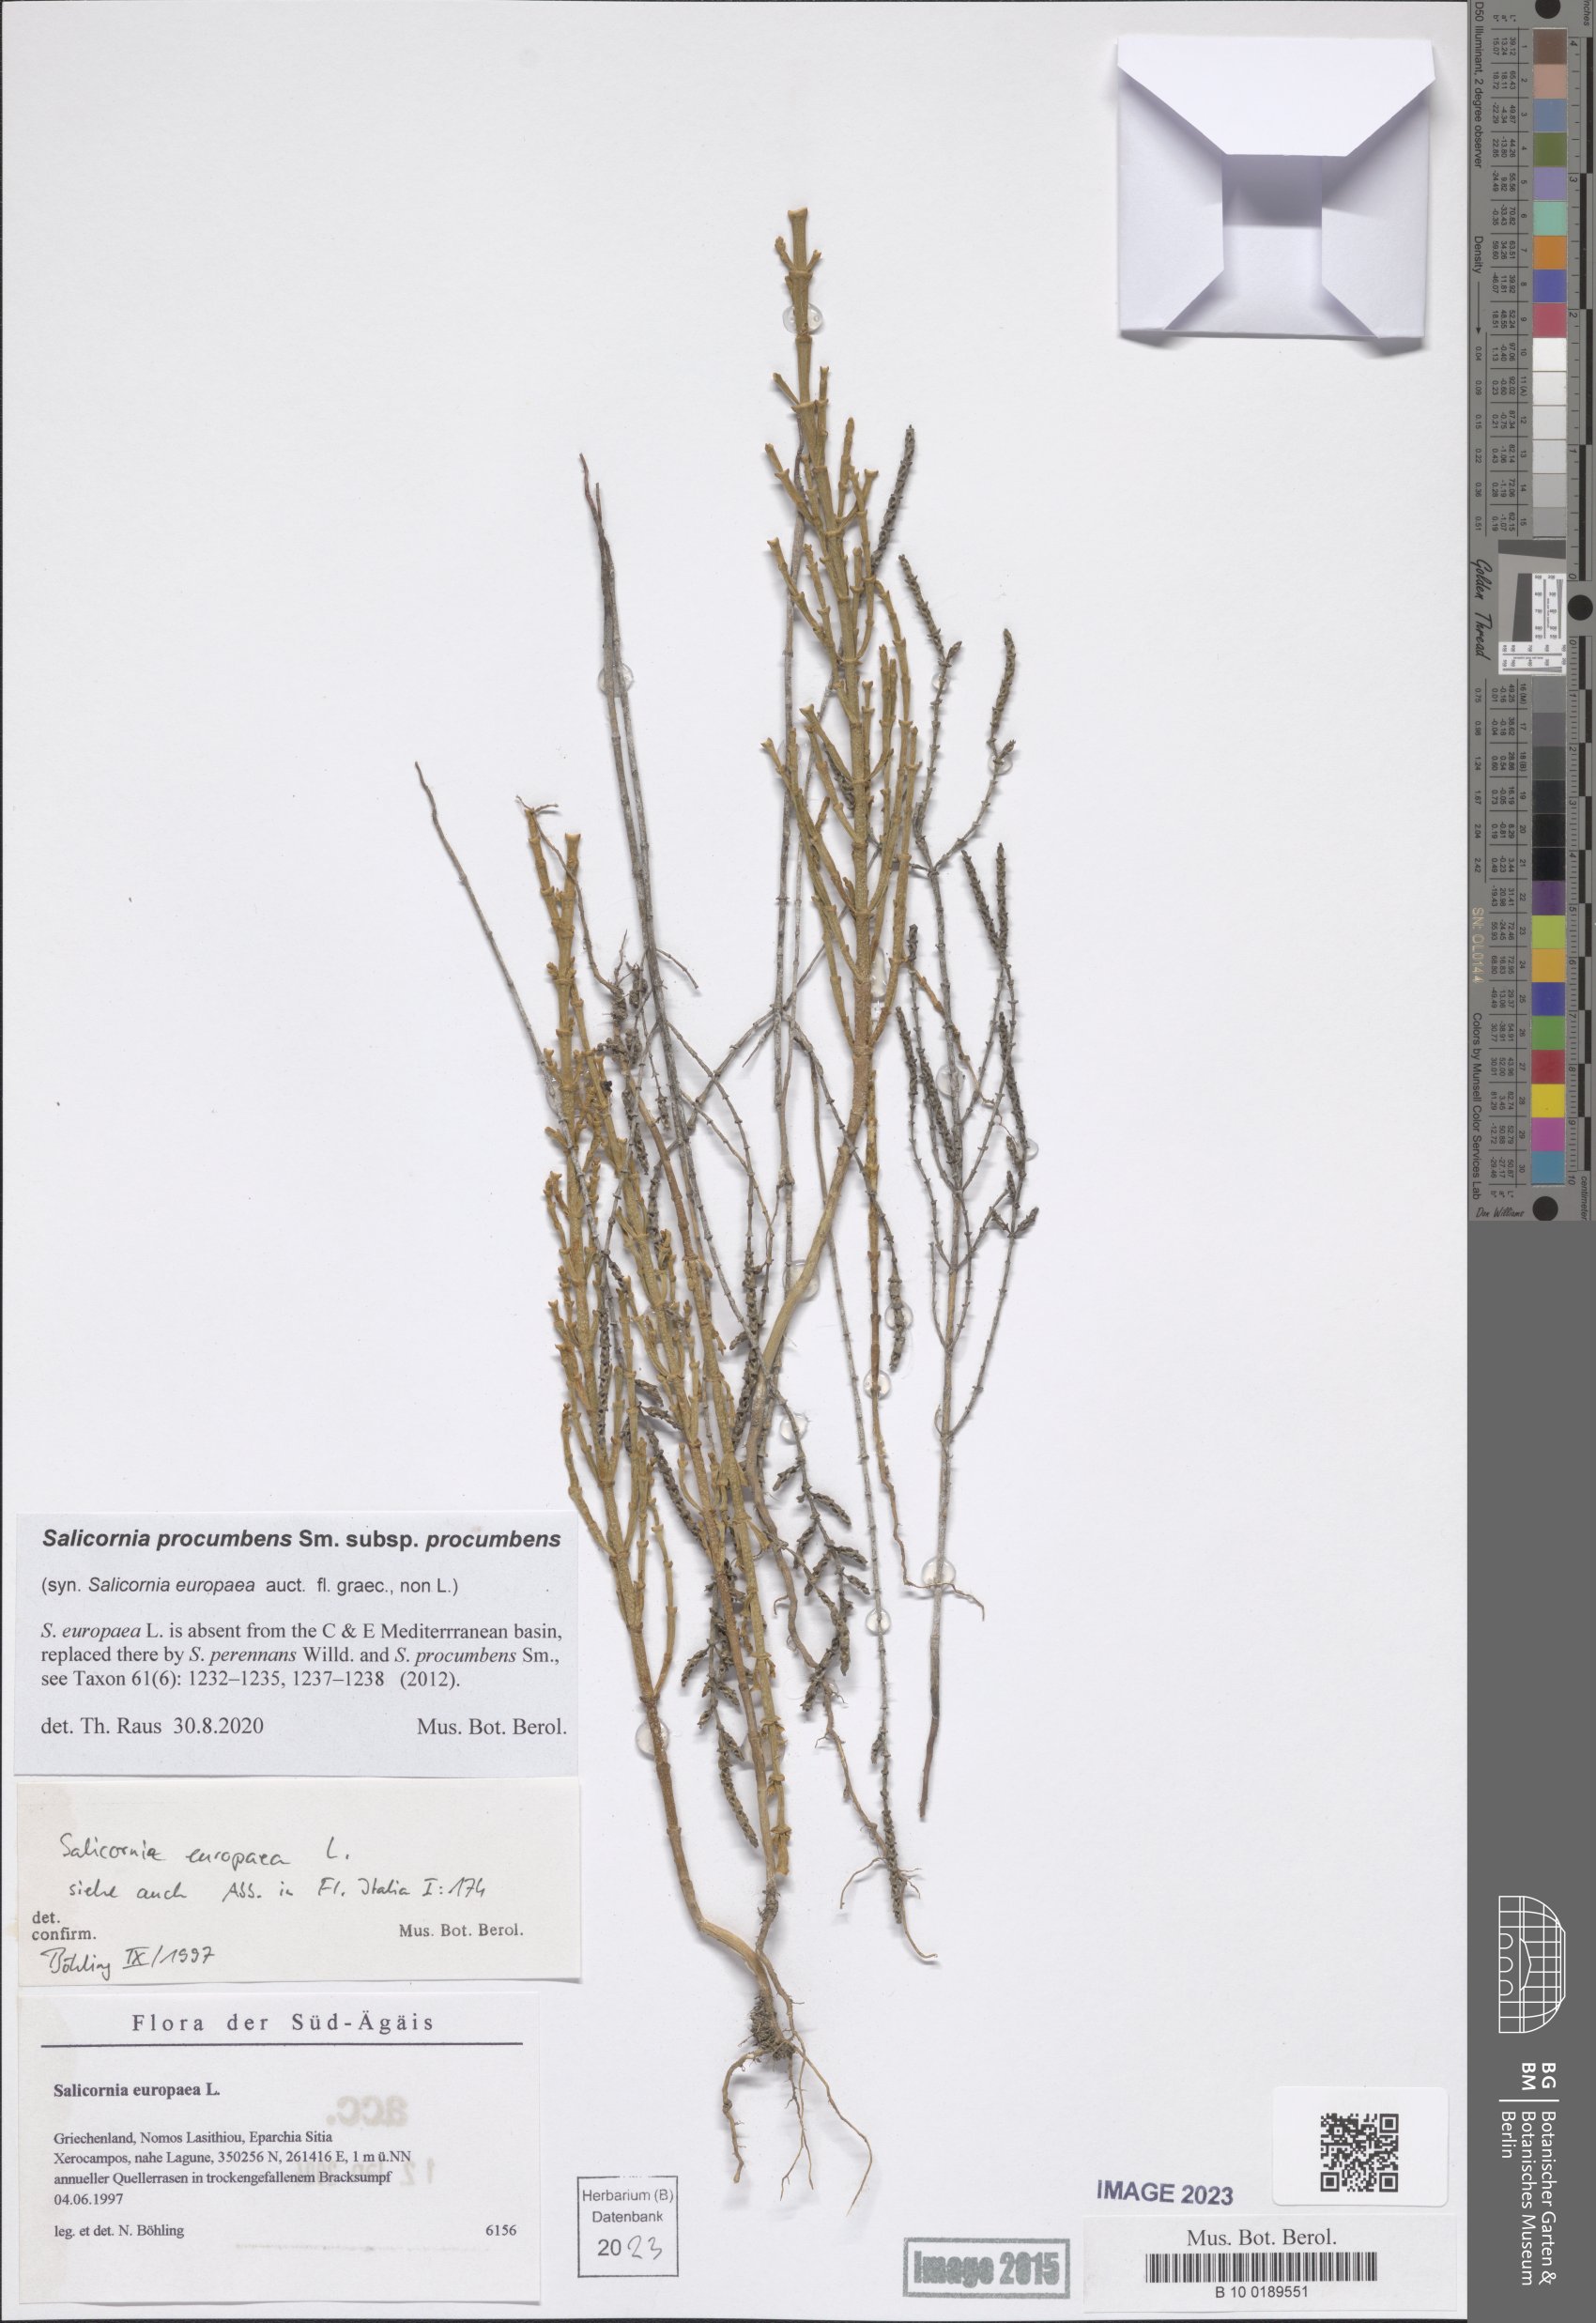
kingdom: Plantae
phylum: Tracheophyta
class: Magnoliopsida
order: Caryophyllales
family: Amaranthaceae
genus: Salicornia
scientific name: Salicornia procumbens
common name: Long-spiked glasswort
